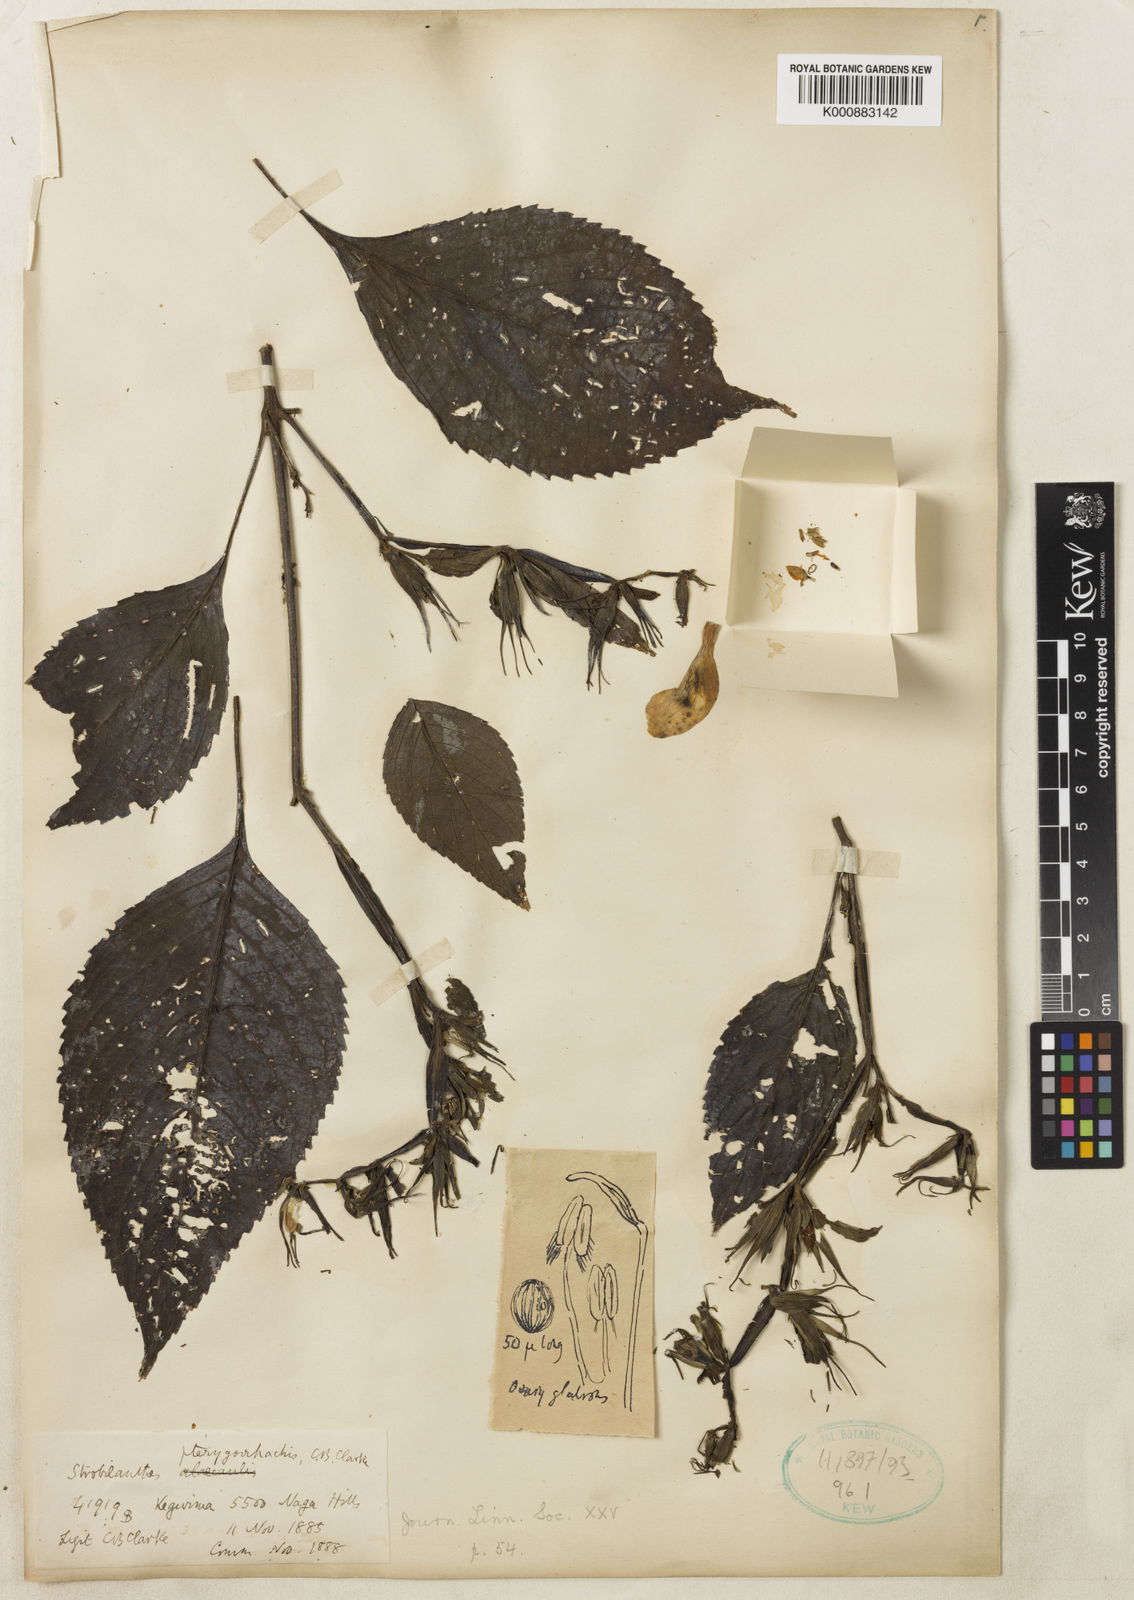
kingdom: Plantae
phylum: Tracheophyta
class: Magnoliopsida
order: Lamiales
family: Acanthaceae
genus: Strobilanthes
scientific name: Strobilanthes pterygorrhachis
